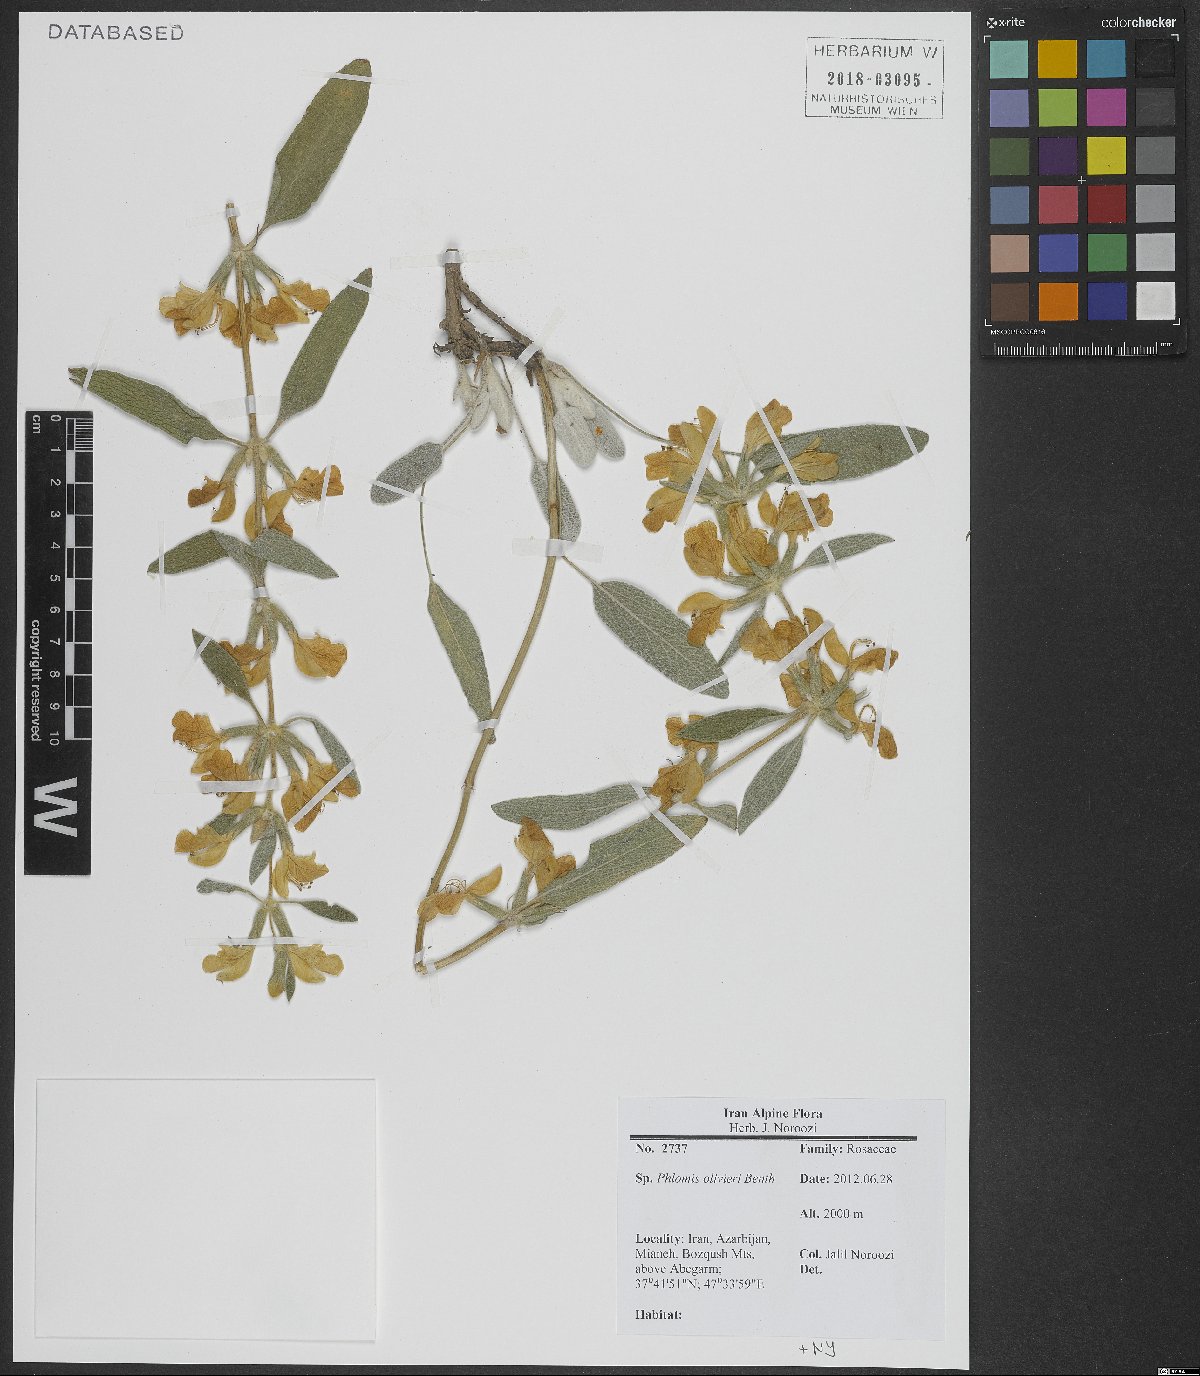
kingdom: Plantae
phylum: Tracheophyta
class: Magnoliopsida
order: Lamiales
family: Lamiaceae
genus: Phlomis
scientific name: Phlomis olivieri
